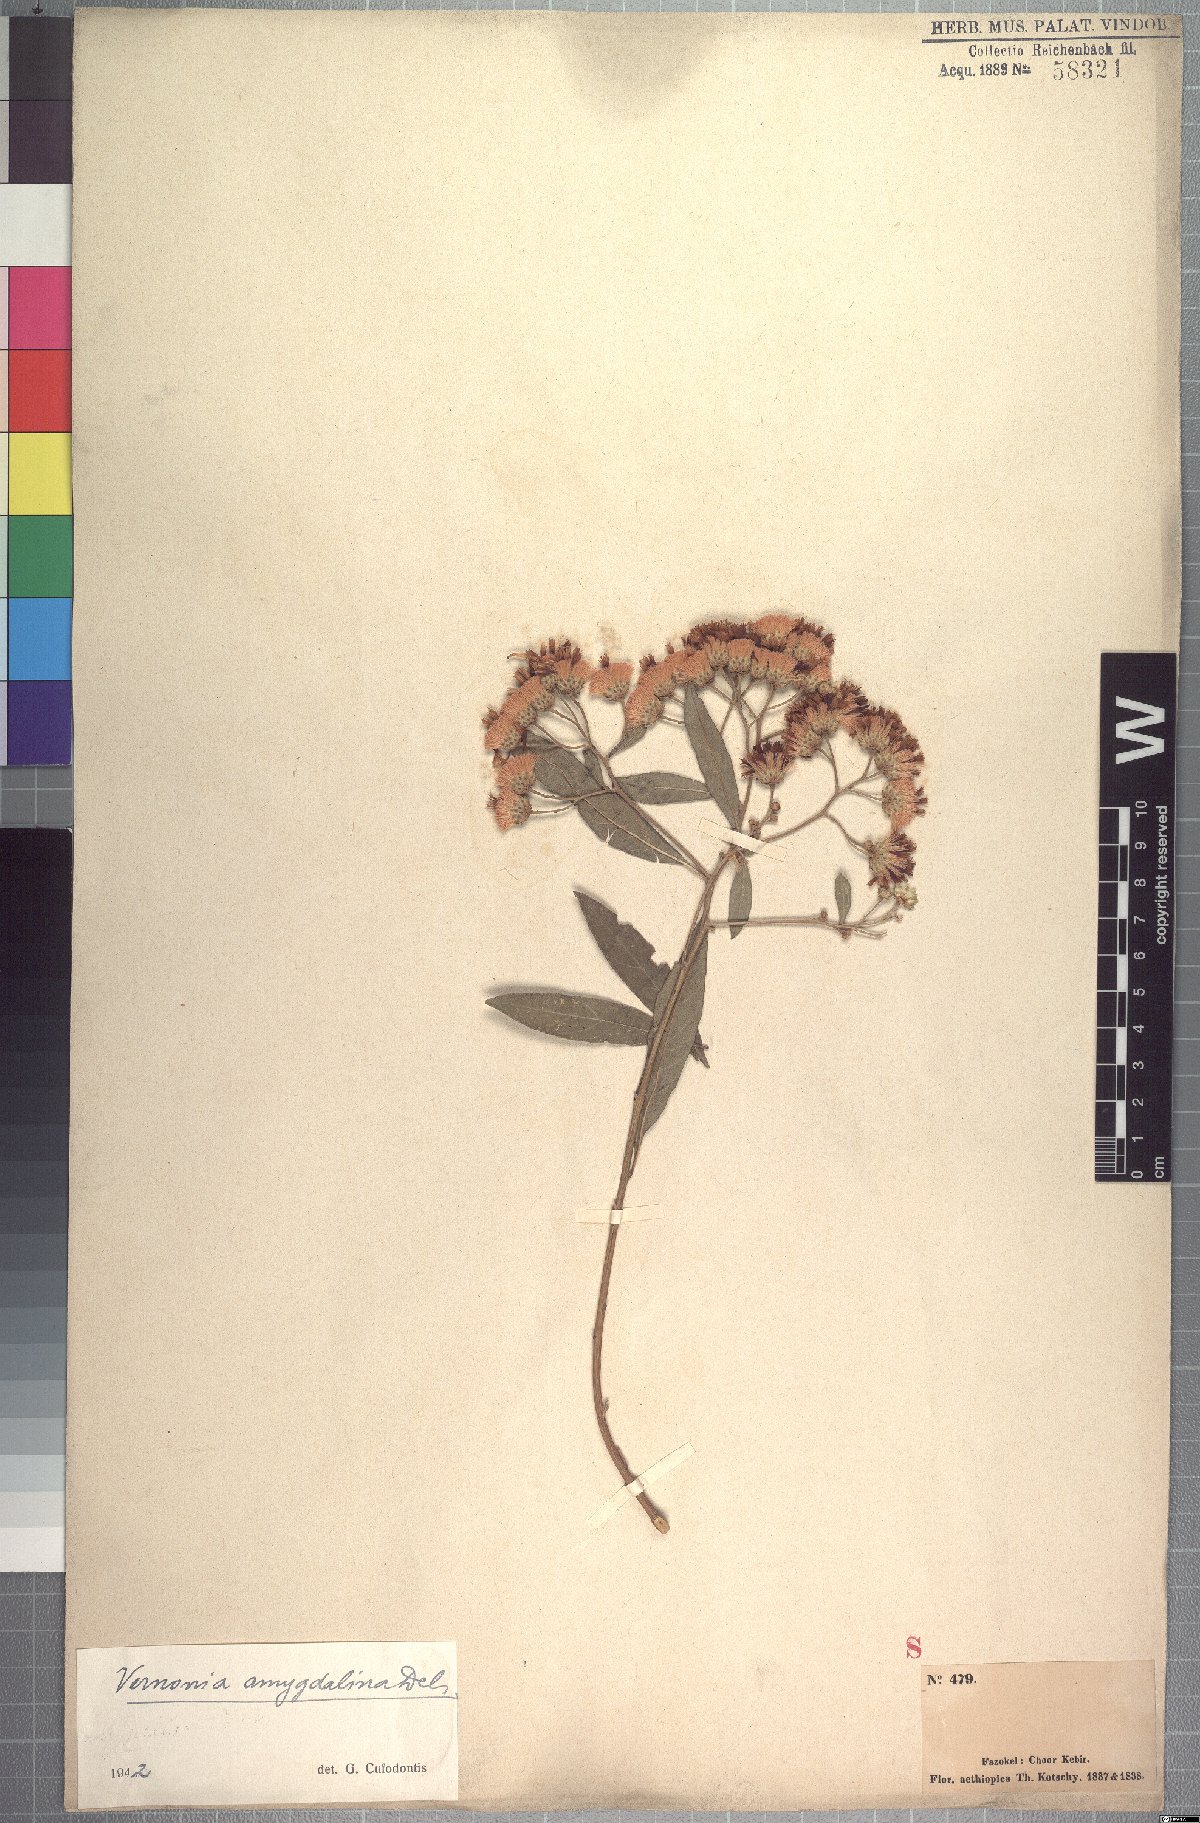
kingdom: Plantae
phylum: Tracheophyta
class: Magnoliopsida
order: Asterales
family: Asteraceae
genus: Gymnanthemum
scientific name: Gymnanthemum amygdalinum
